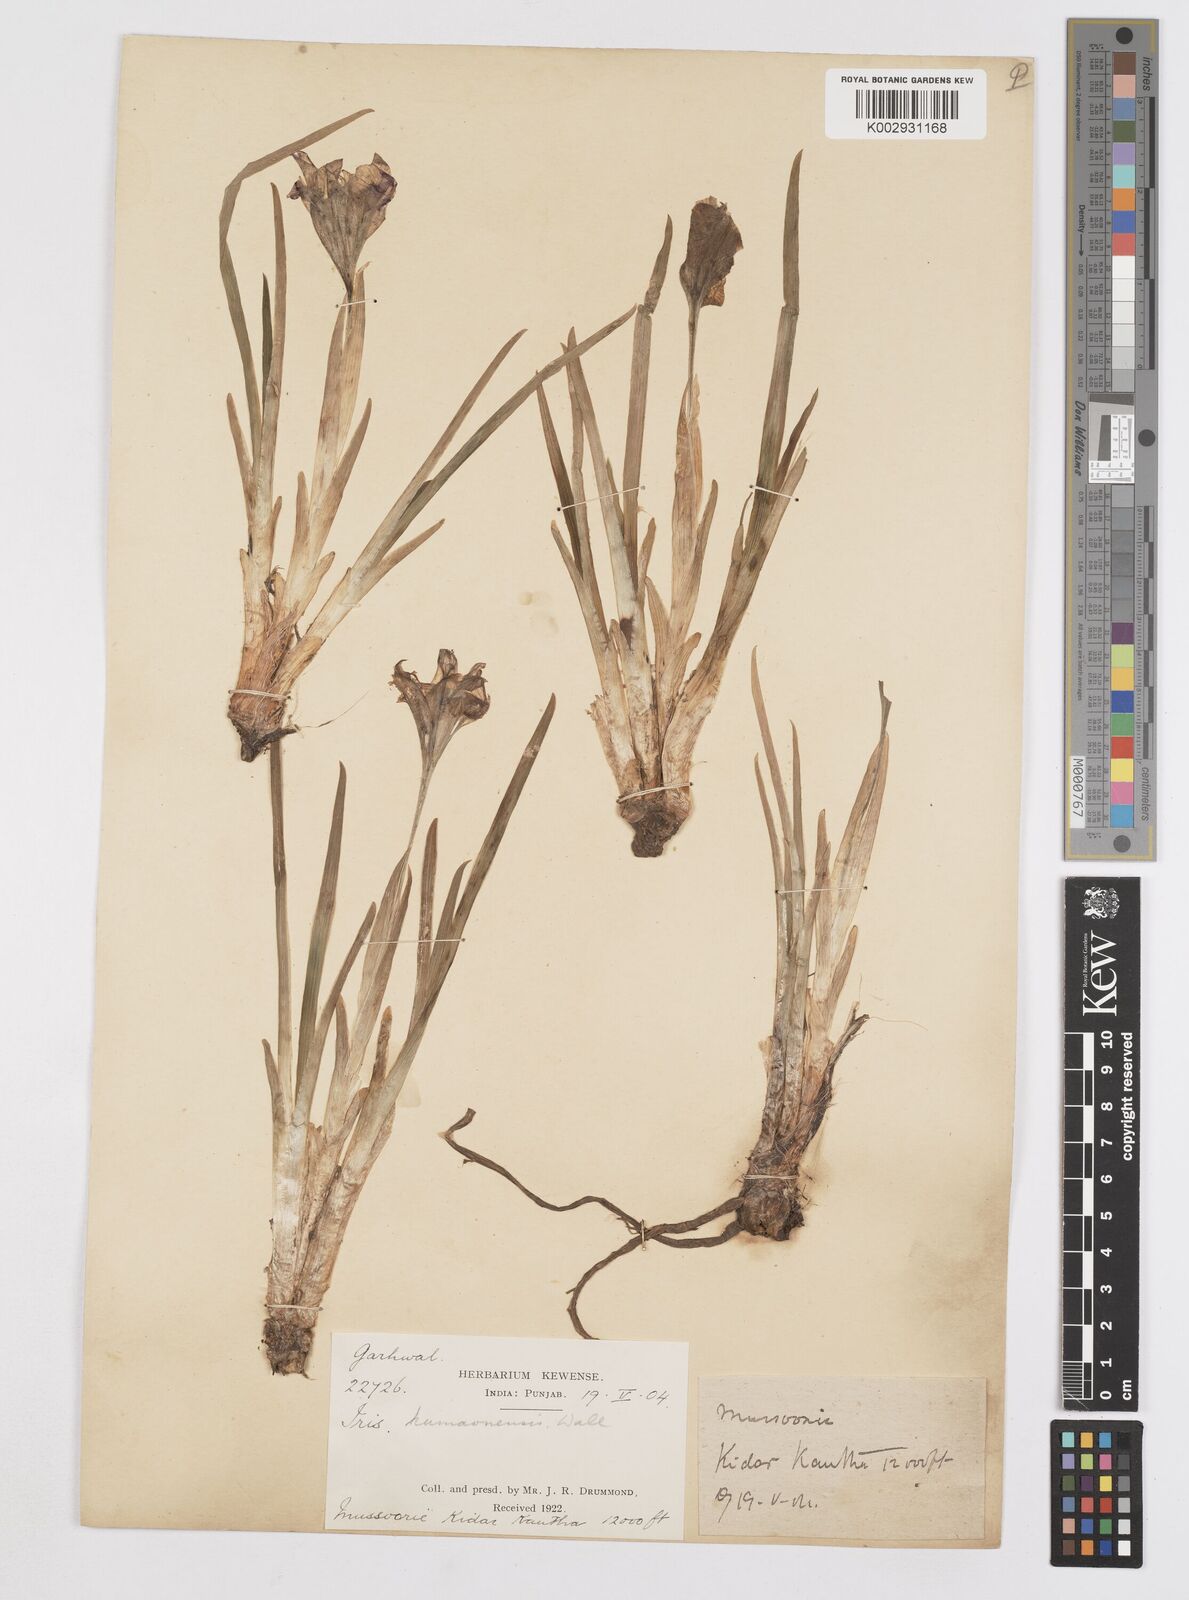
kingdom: Plantae
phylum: Tracheophyta
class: Liliopsida
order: Asparagales
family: Iridaceae
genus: Iris
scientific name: Iris kemaonensis
